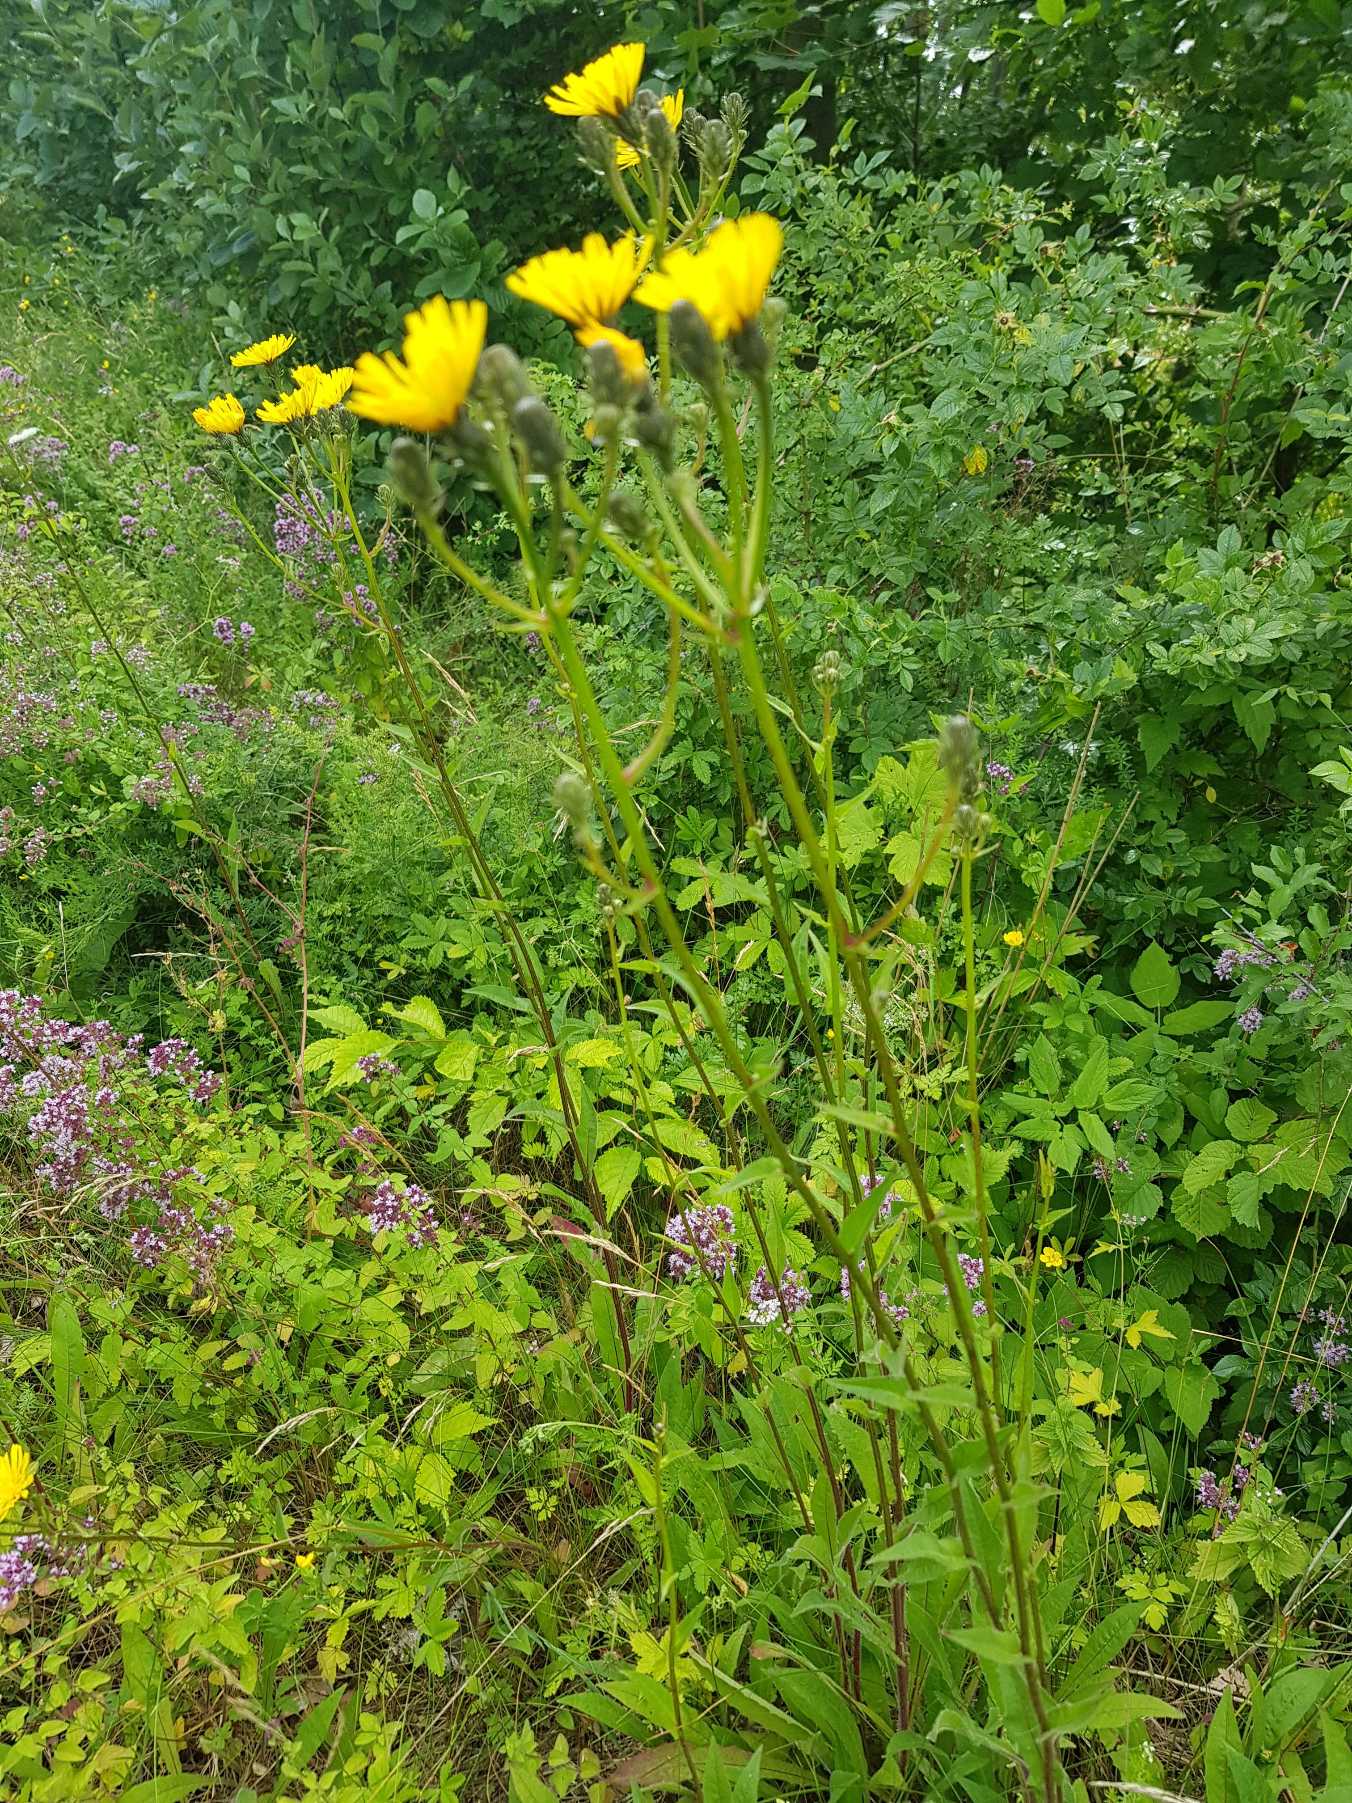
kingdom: Plantae
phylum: Tracheophyta
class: Magnoliopsida
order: Asterales
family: Asteraceae
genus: Picris
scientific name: Picris hieracioides
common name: Ru bittermælk
